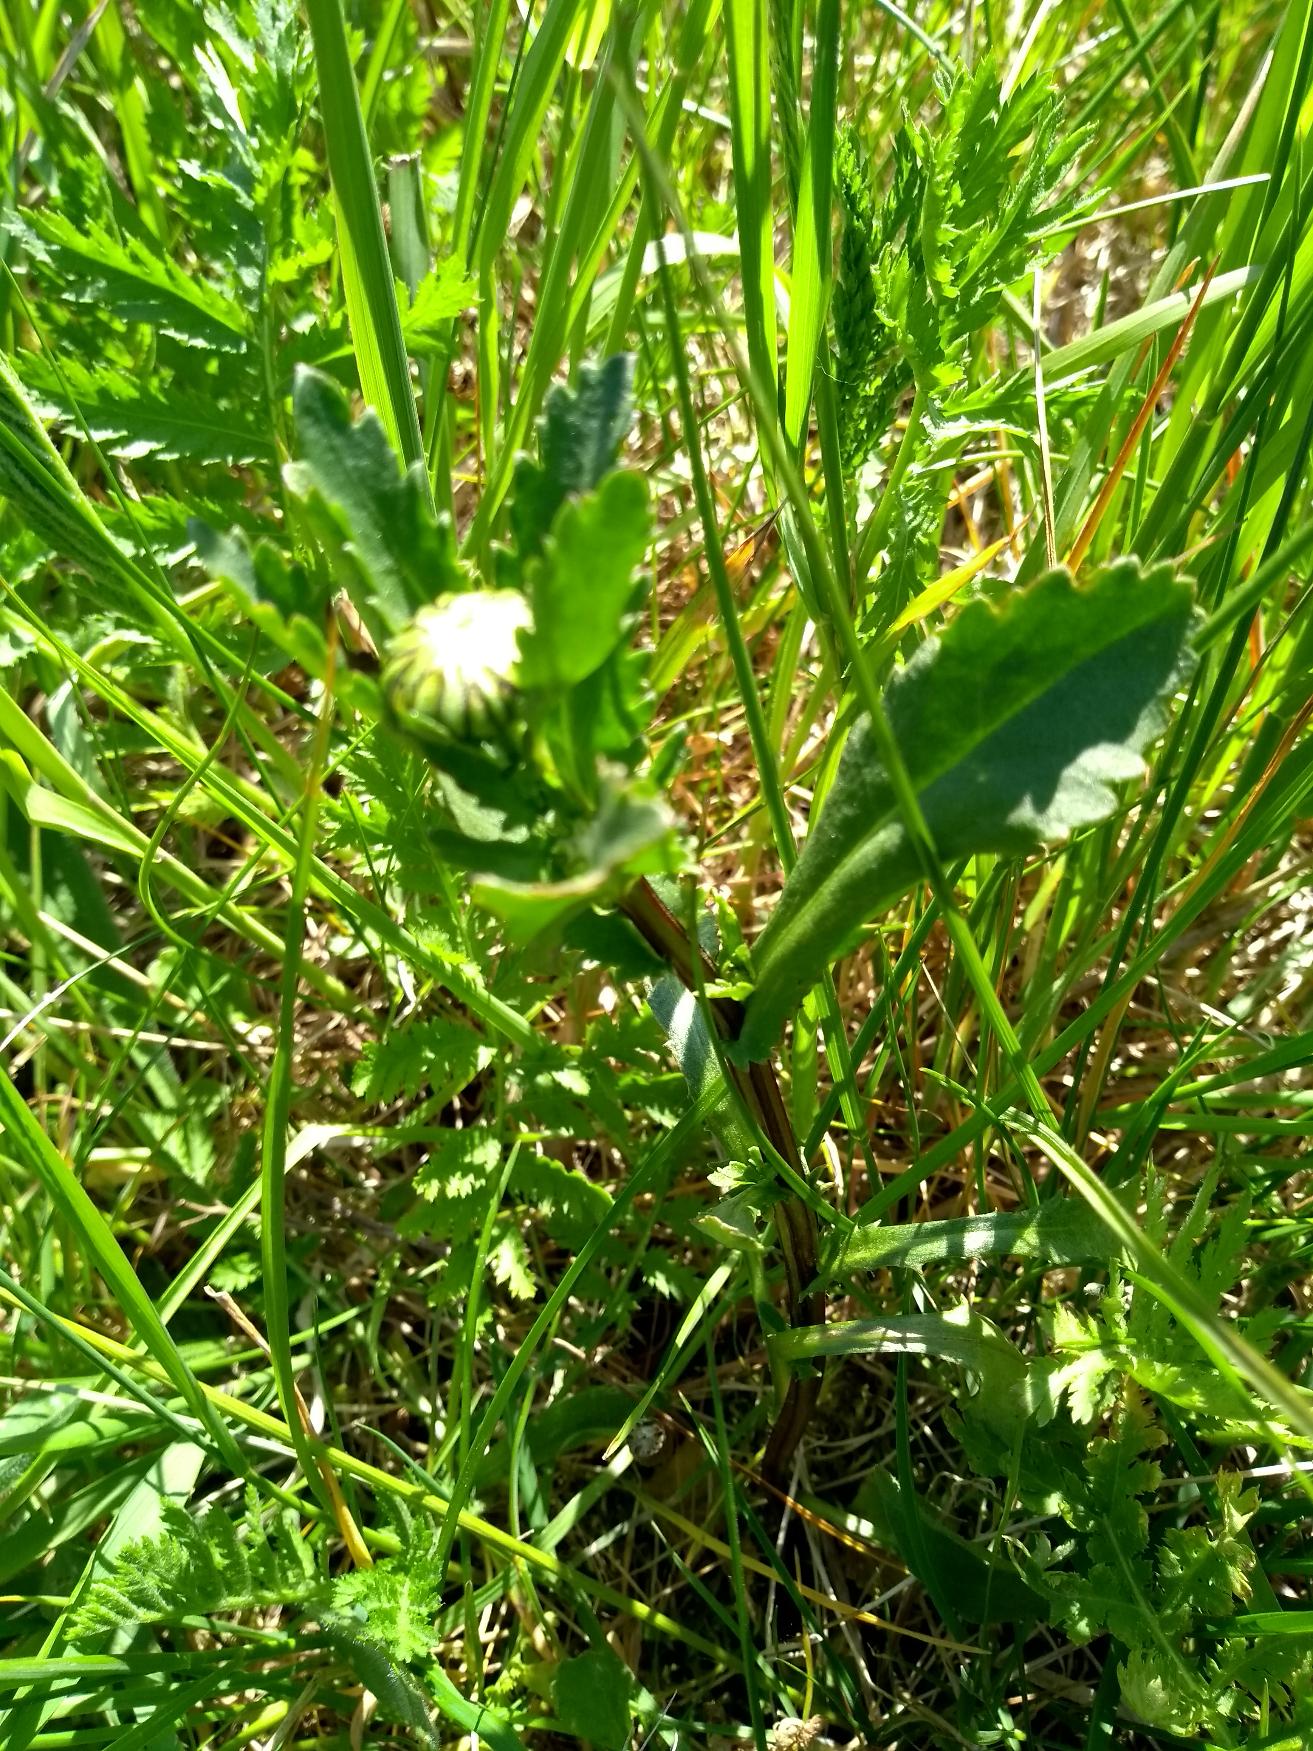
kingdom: Plantae
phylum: Tracheophyta
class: Magnoliopsida
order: Asterales
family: Asteraceae
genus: Leucanthemum
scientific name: Leucanthemum vulgare
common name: Hvid okseøje
